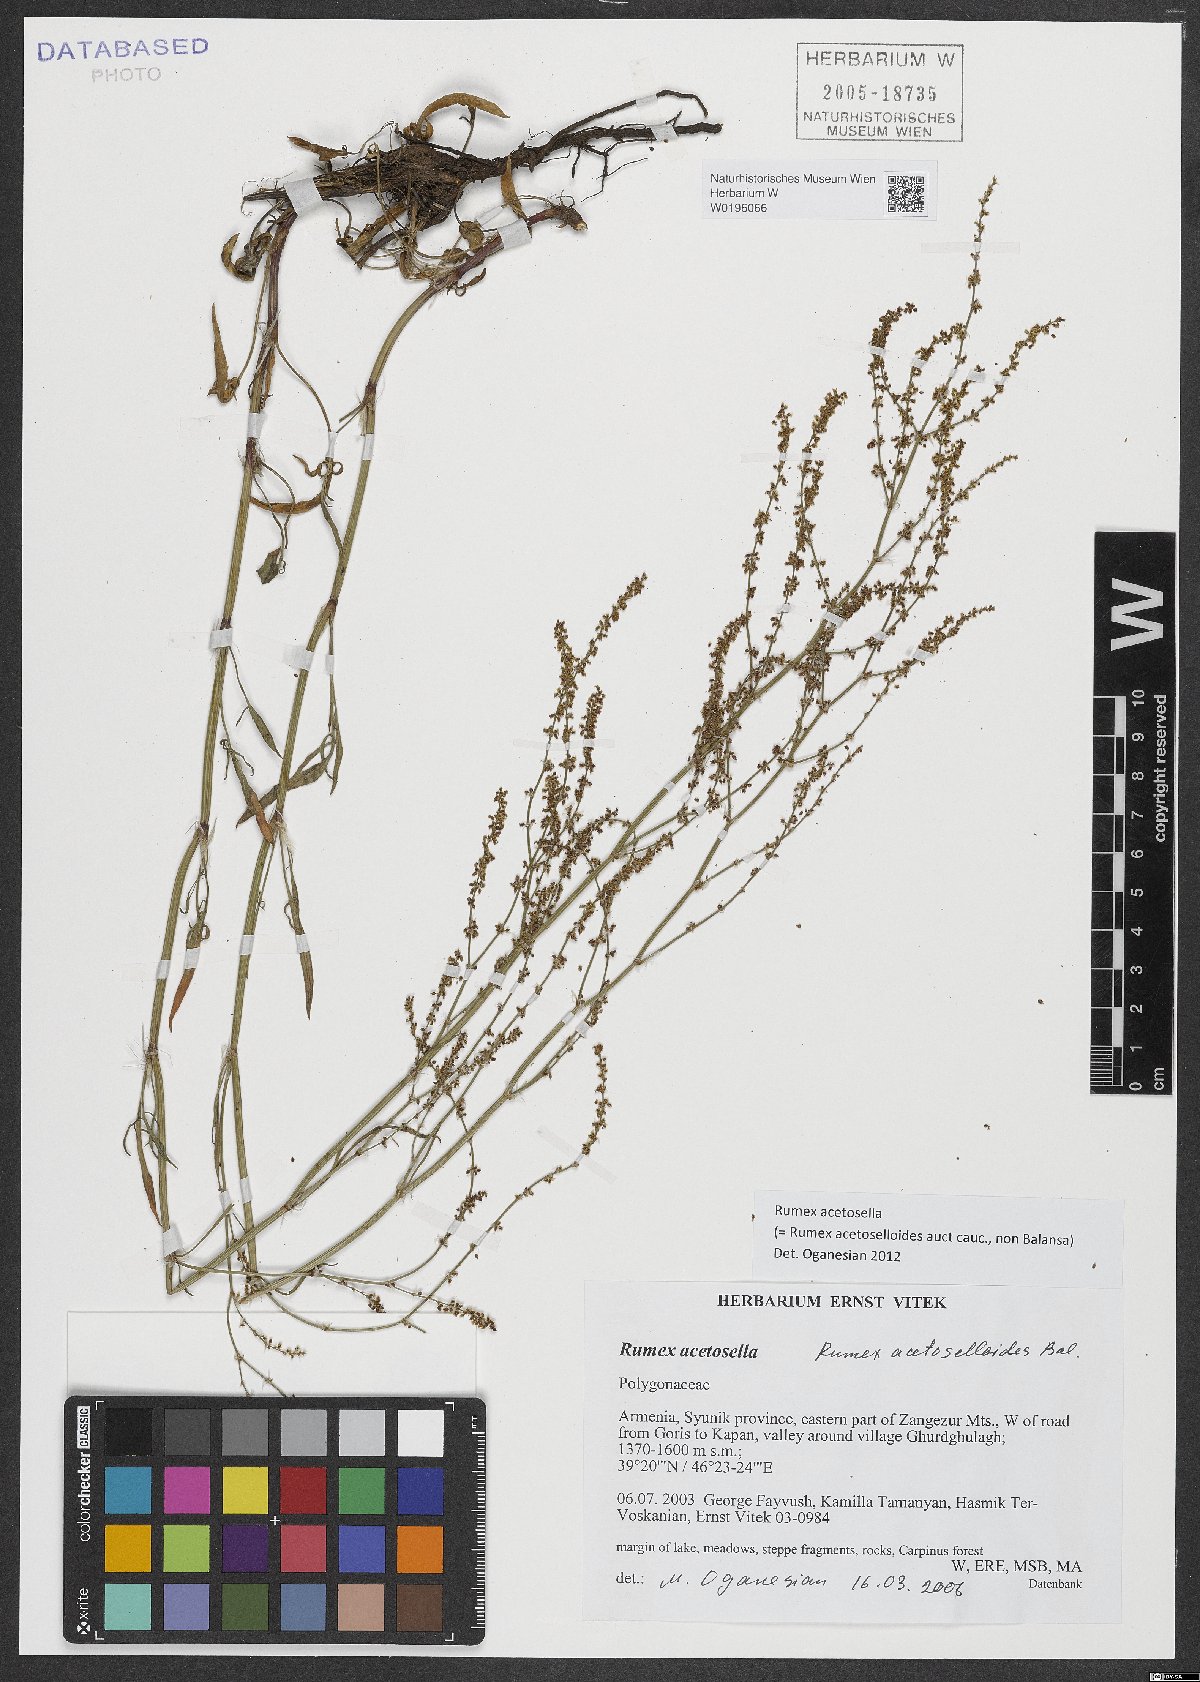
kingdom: Plantae
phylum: Tracheophyta
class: Magnoliopsida
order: Caryophyllales
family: Polygonaceae
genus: Rumex
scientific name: Rumex acetosella
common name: Common sheep sorrel
